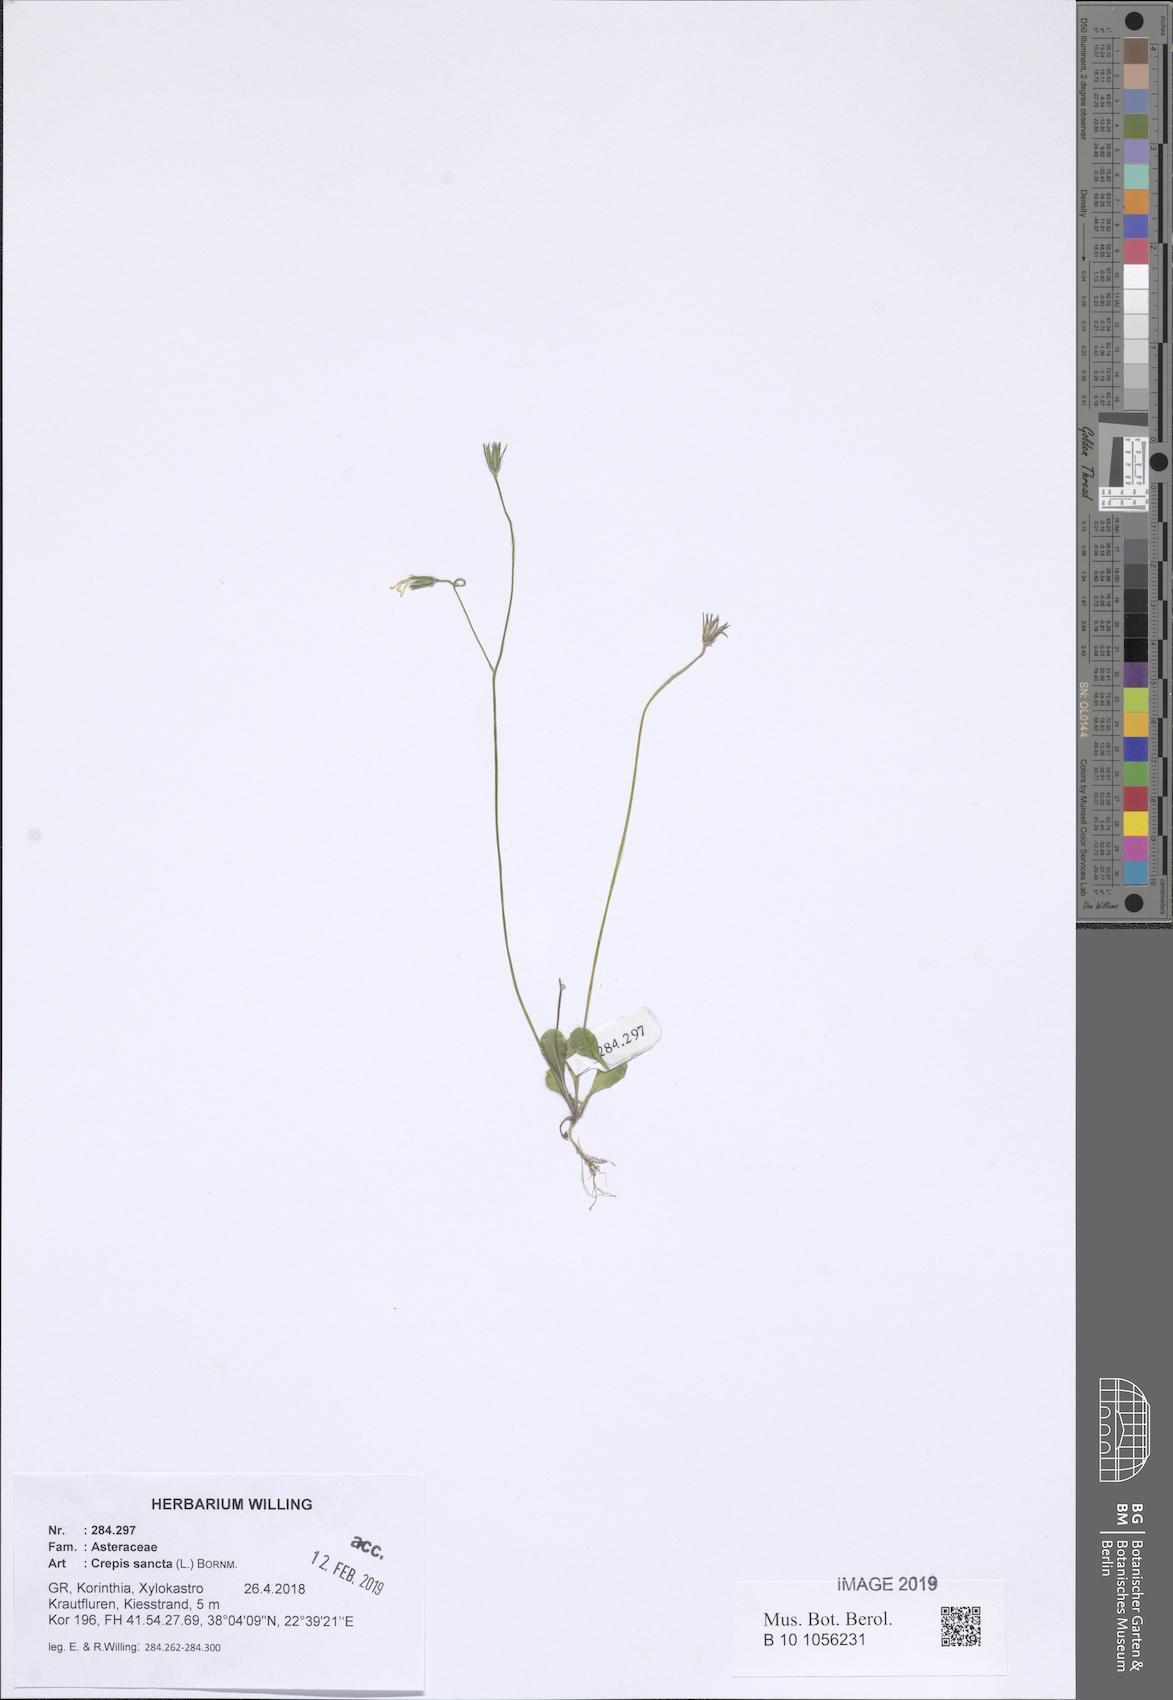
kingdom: Plantae
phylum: Tracheophyta
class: Magnoliopsida
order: Asterales
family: Asteraceae
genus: Crepis
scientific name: Crepis sancta
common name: Hawk's-beard
